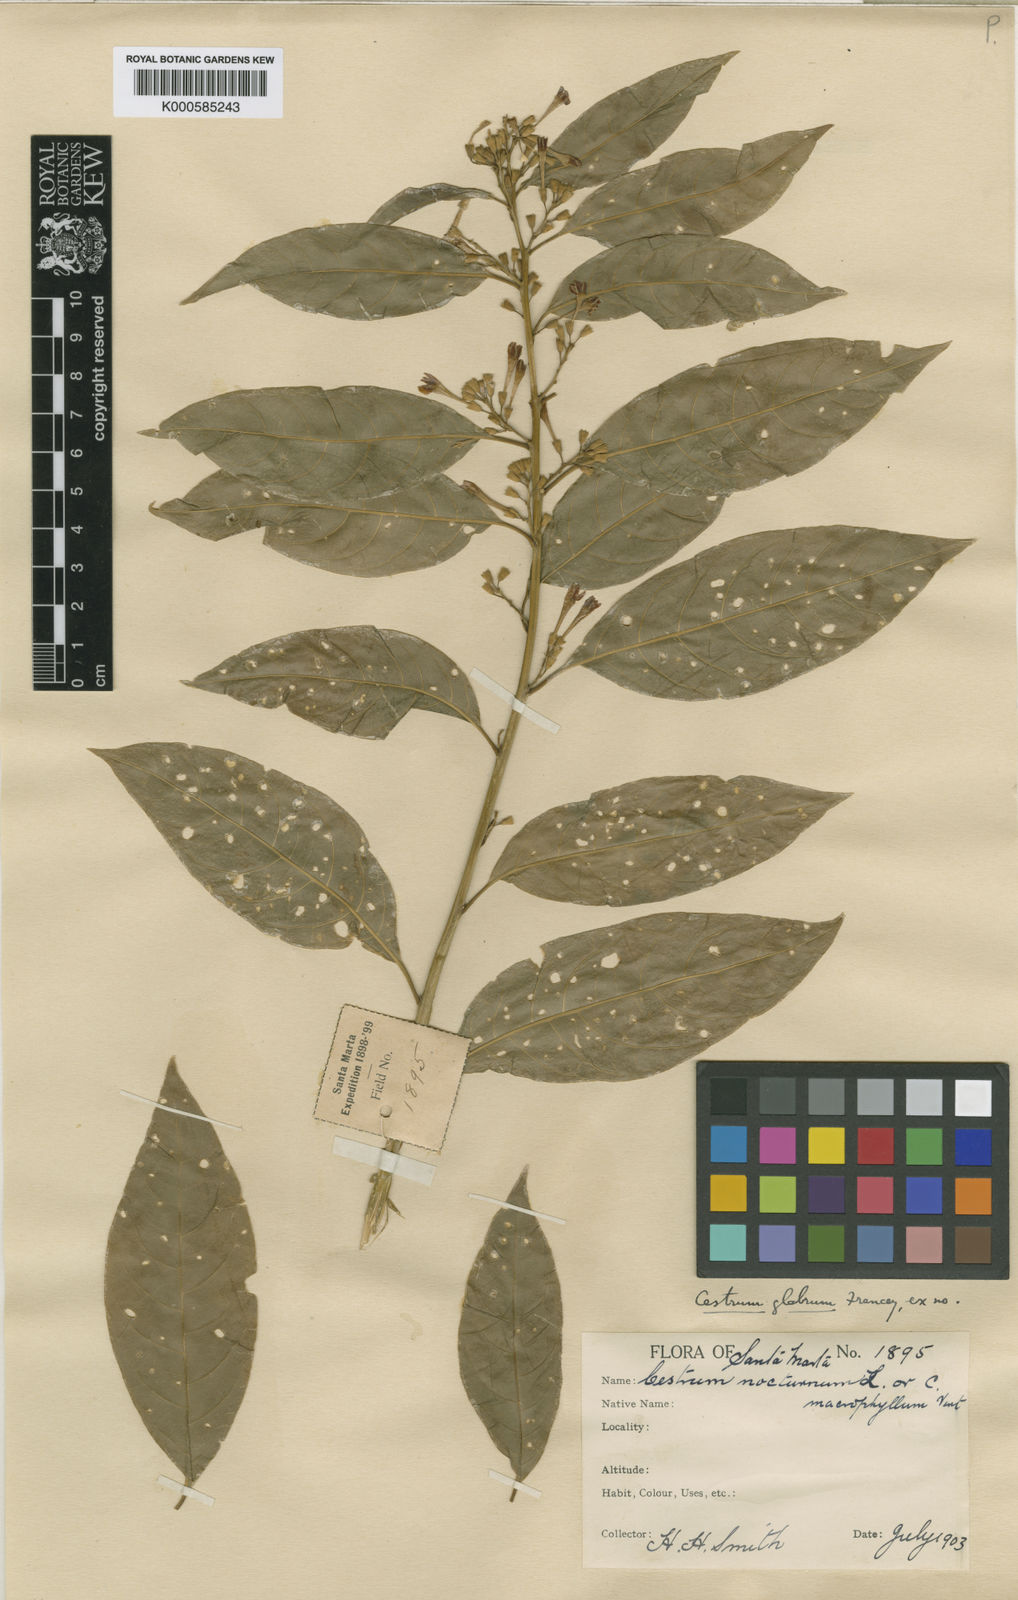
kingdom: Plantae
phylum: Tracheophyta
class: Magnoliopsida
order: Solanales
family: Solanaceae
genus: Cestrum
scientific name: Cestrum glabrum
